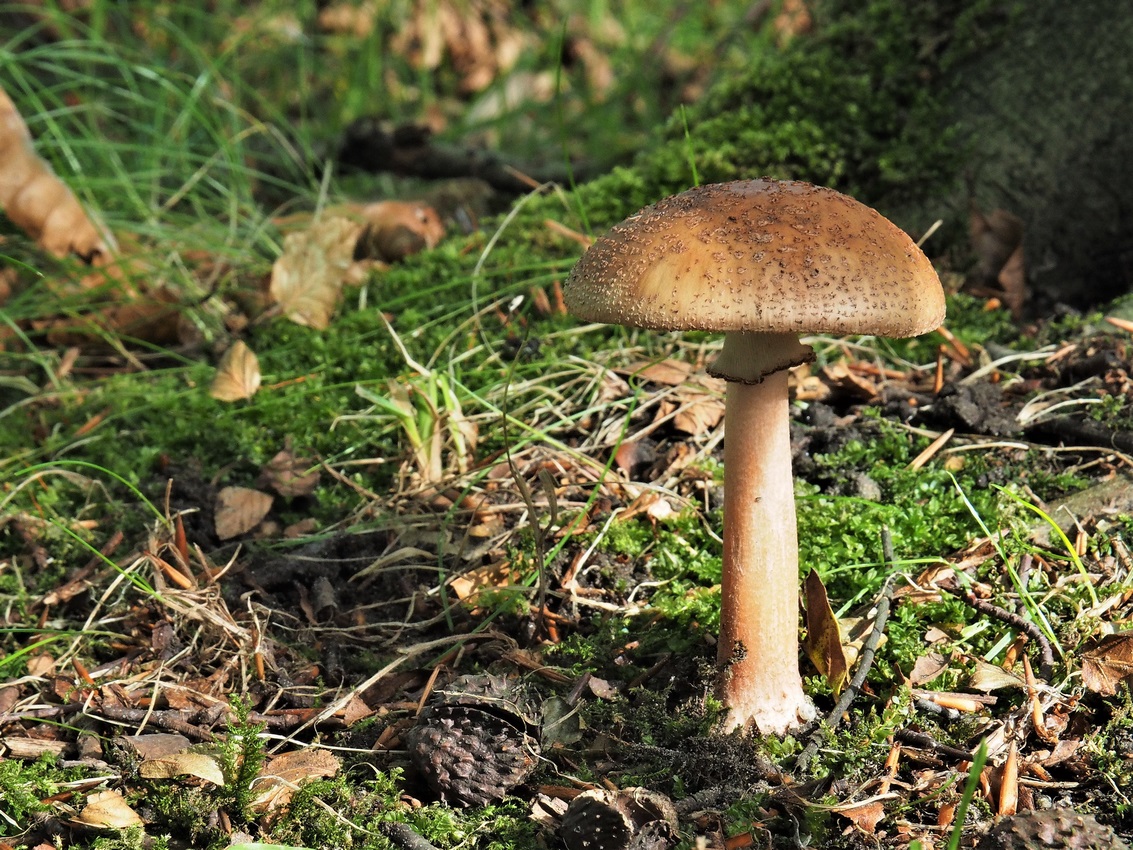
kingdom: Fungi
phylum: Basidiomycota
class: Agaricomycetes
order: Agaricales
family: Amanitaceae
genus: Amanita
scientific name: Amanita rubescens
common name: rødmende fluesvamp
